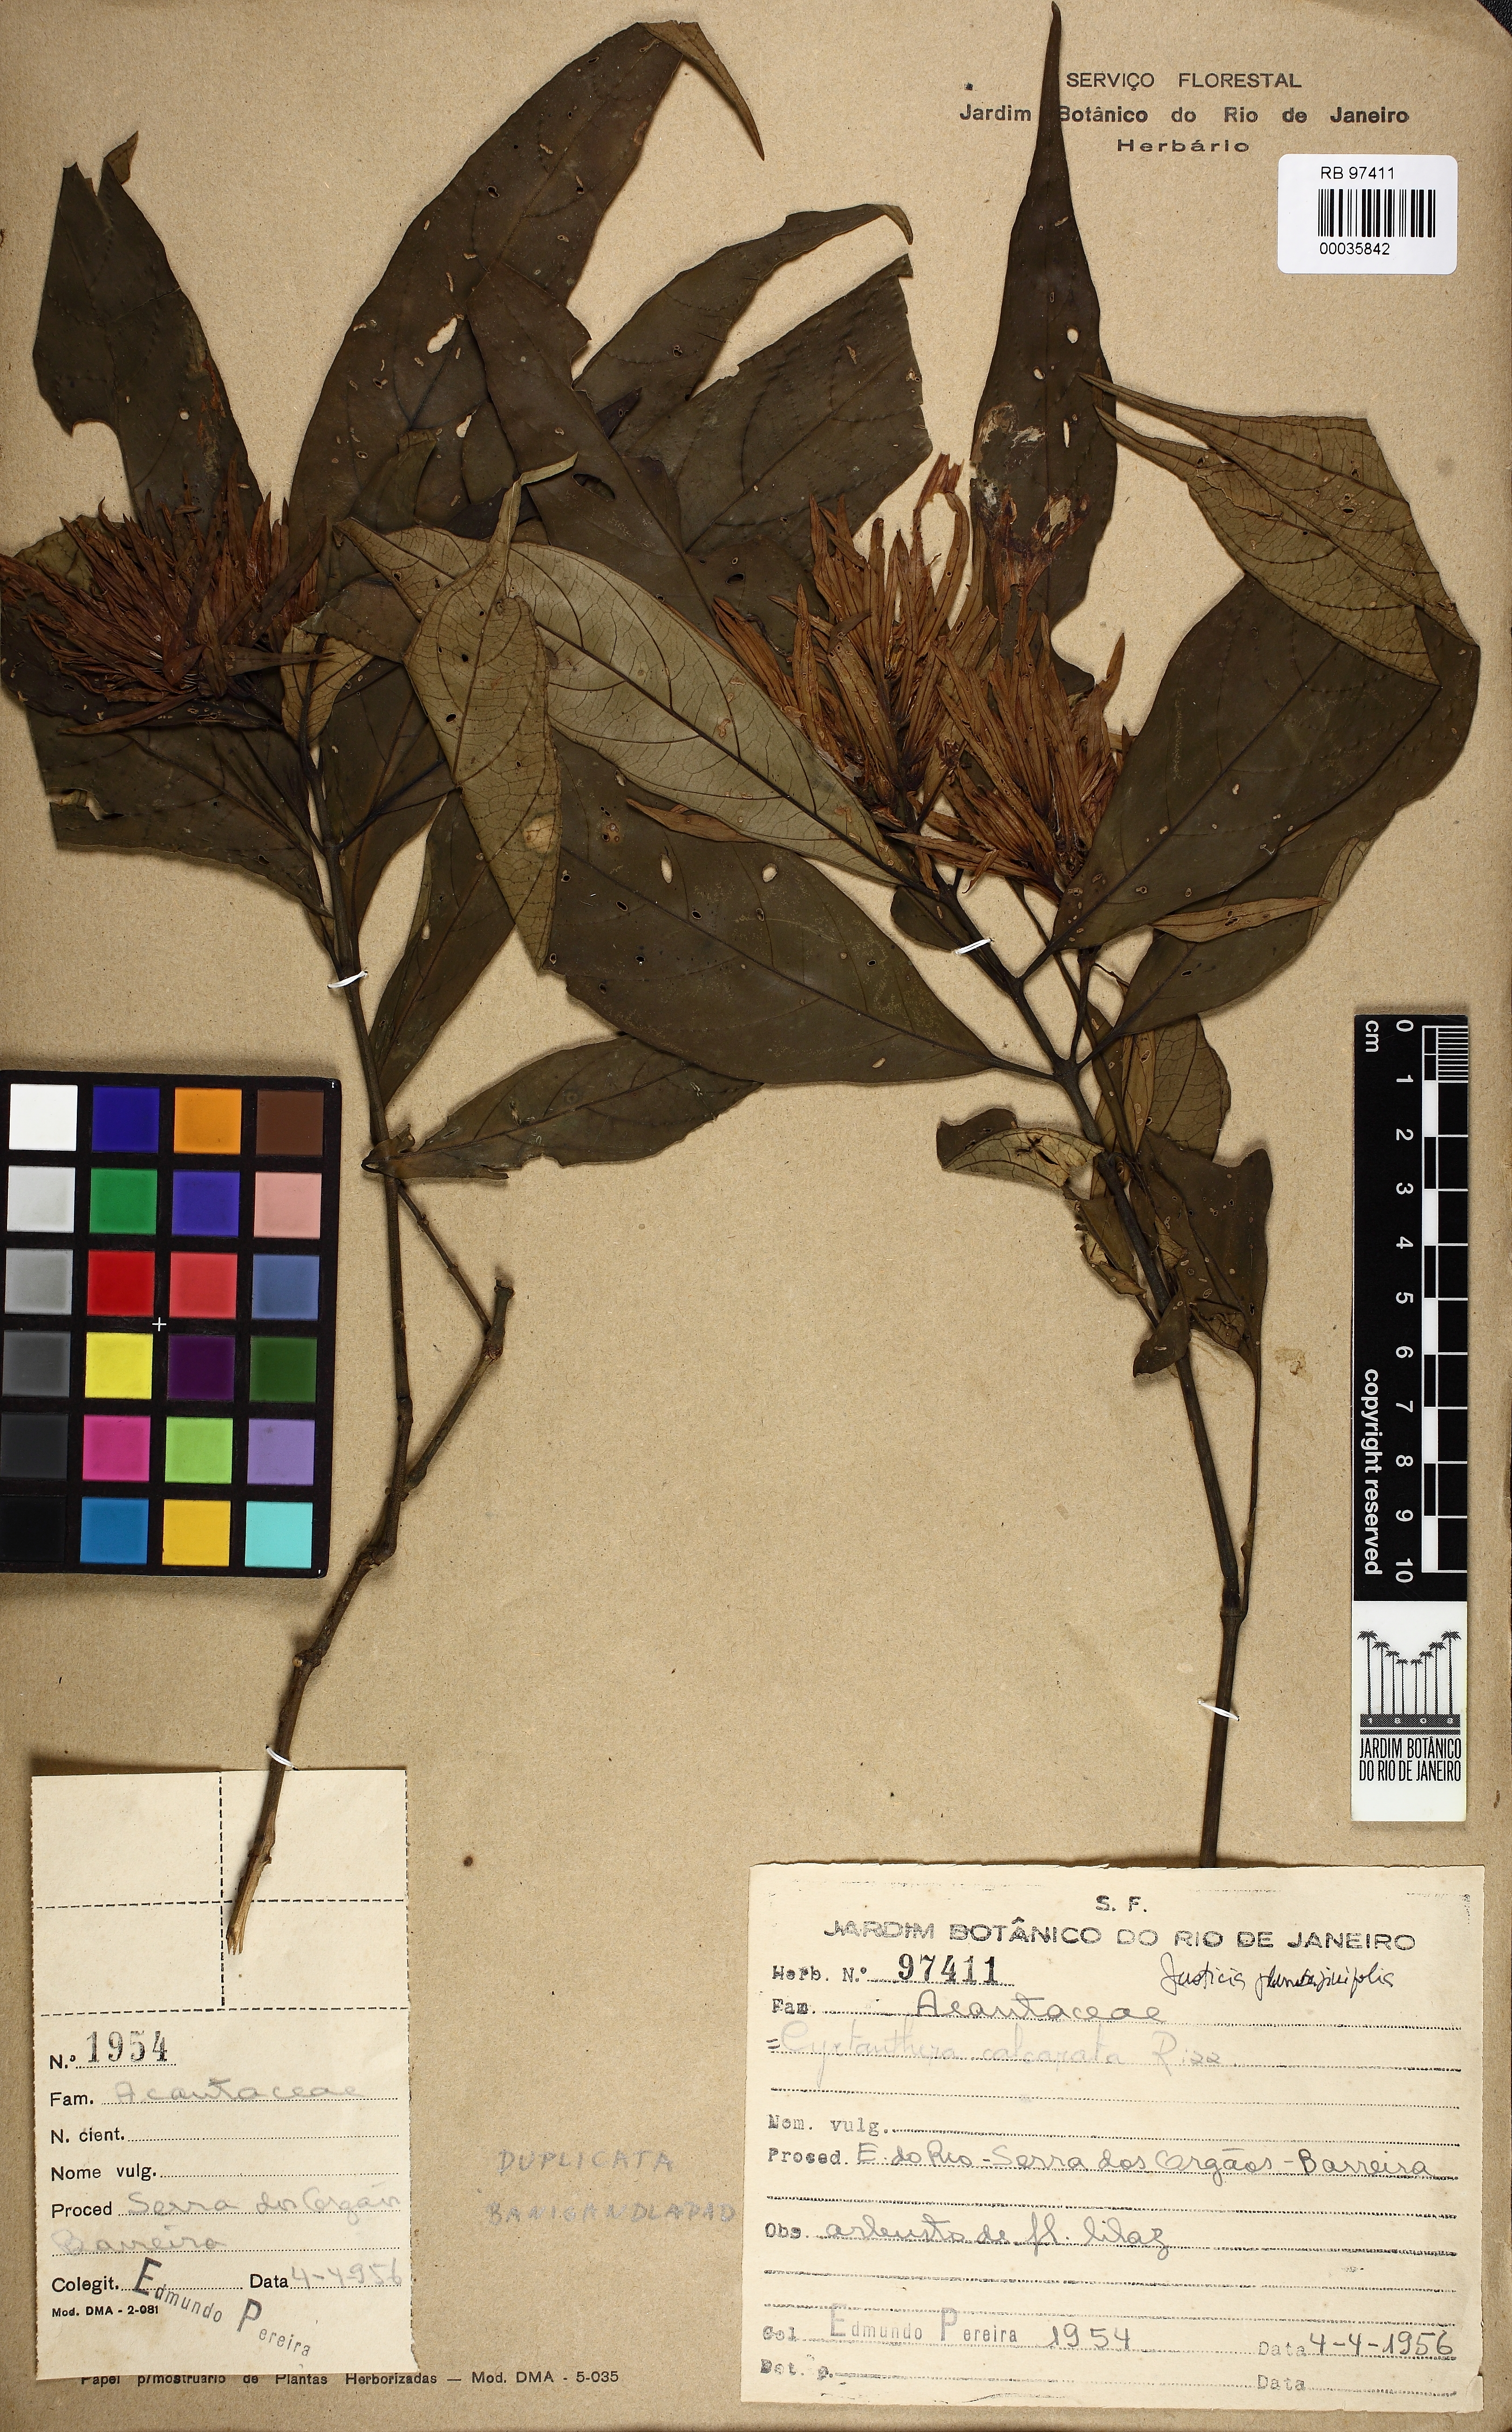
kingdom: Plantae
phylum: Tracheophyta
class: Magnoliopsida
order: Lamiales
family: Acanthaceae
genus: Justicia
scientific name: Justicia plumbaginifolia
